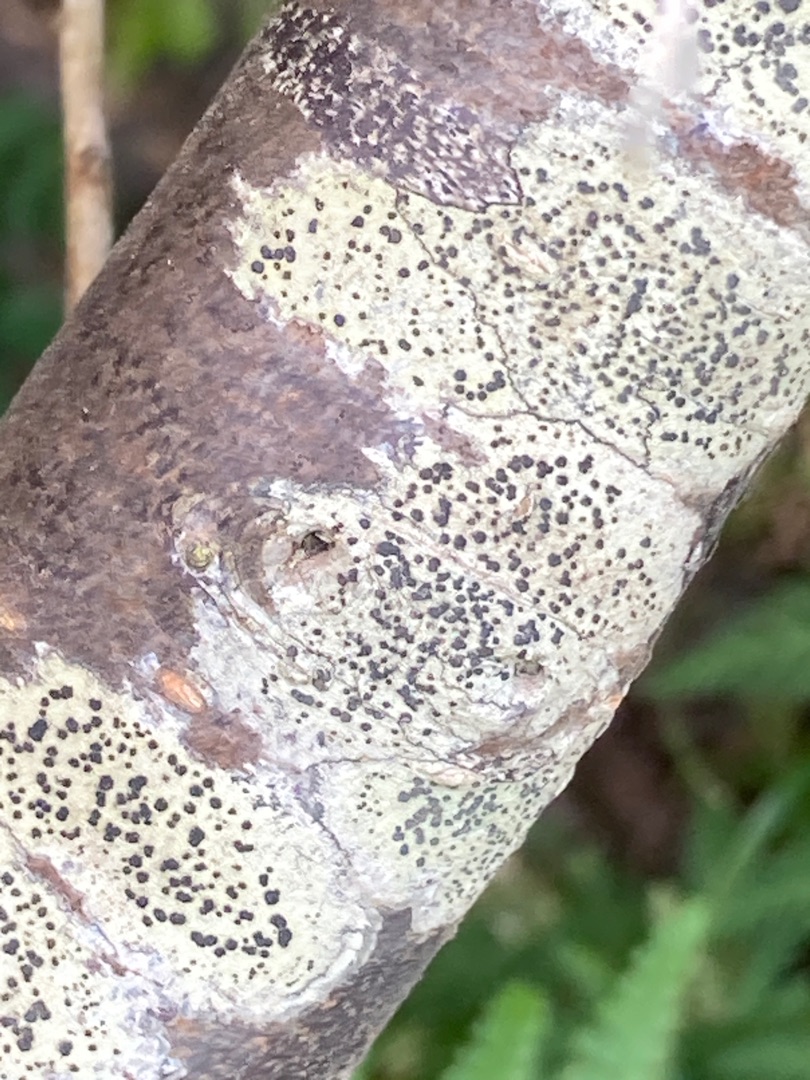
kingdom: Fungi
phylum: Ascomycota
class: Lecanoromycetes
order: Lecanorales
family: Lecanoraceae
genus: Lecidella
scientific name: Lecidella elaeochroma
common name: Grågrøn skivelav
